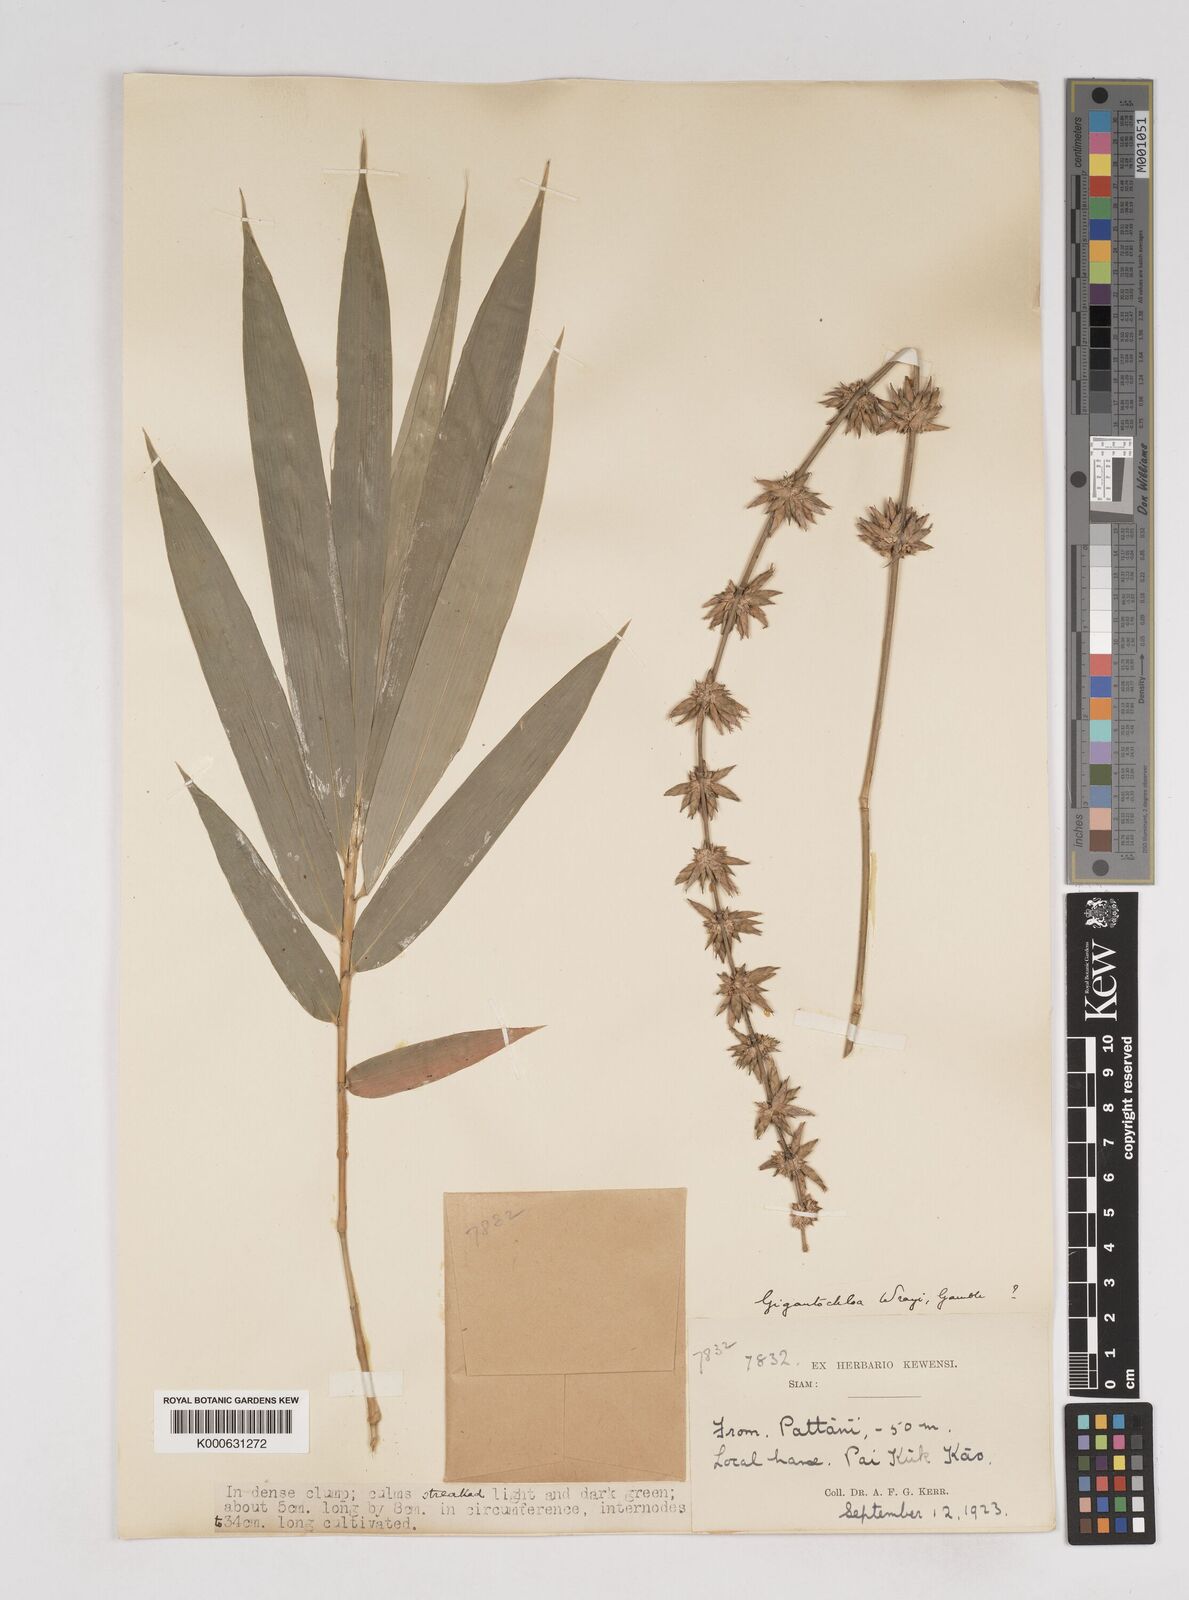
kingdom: Plantae
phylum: Tracheophyta
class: Liliopsida
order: Poales
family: Poaceae
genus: Gigantochloa
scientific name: Gigantochloa
